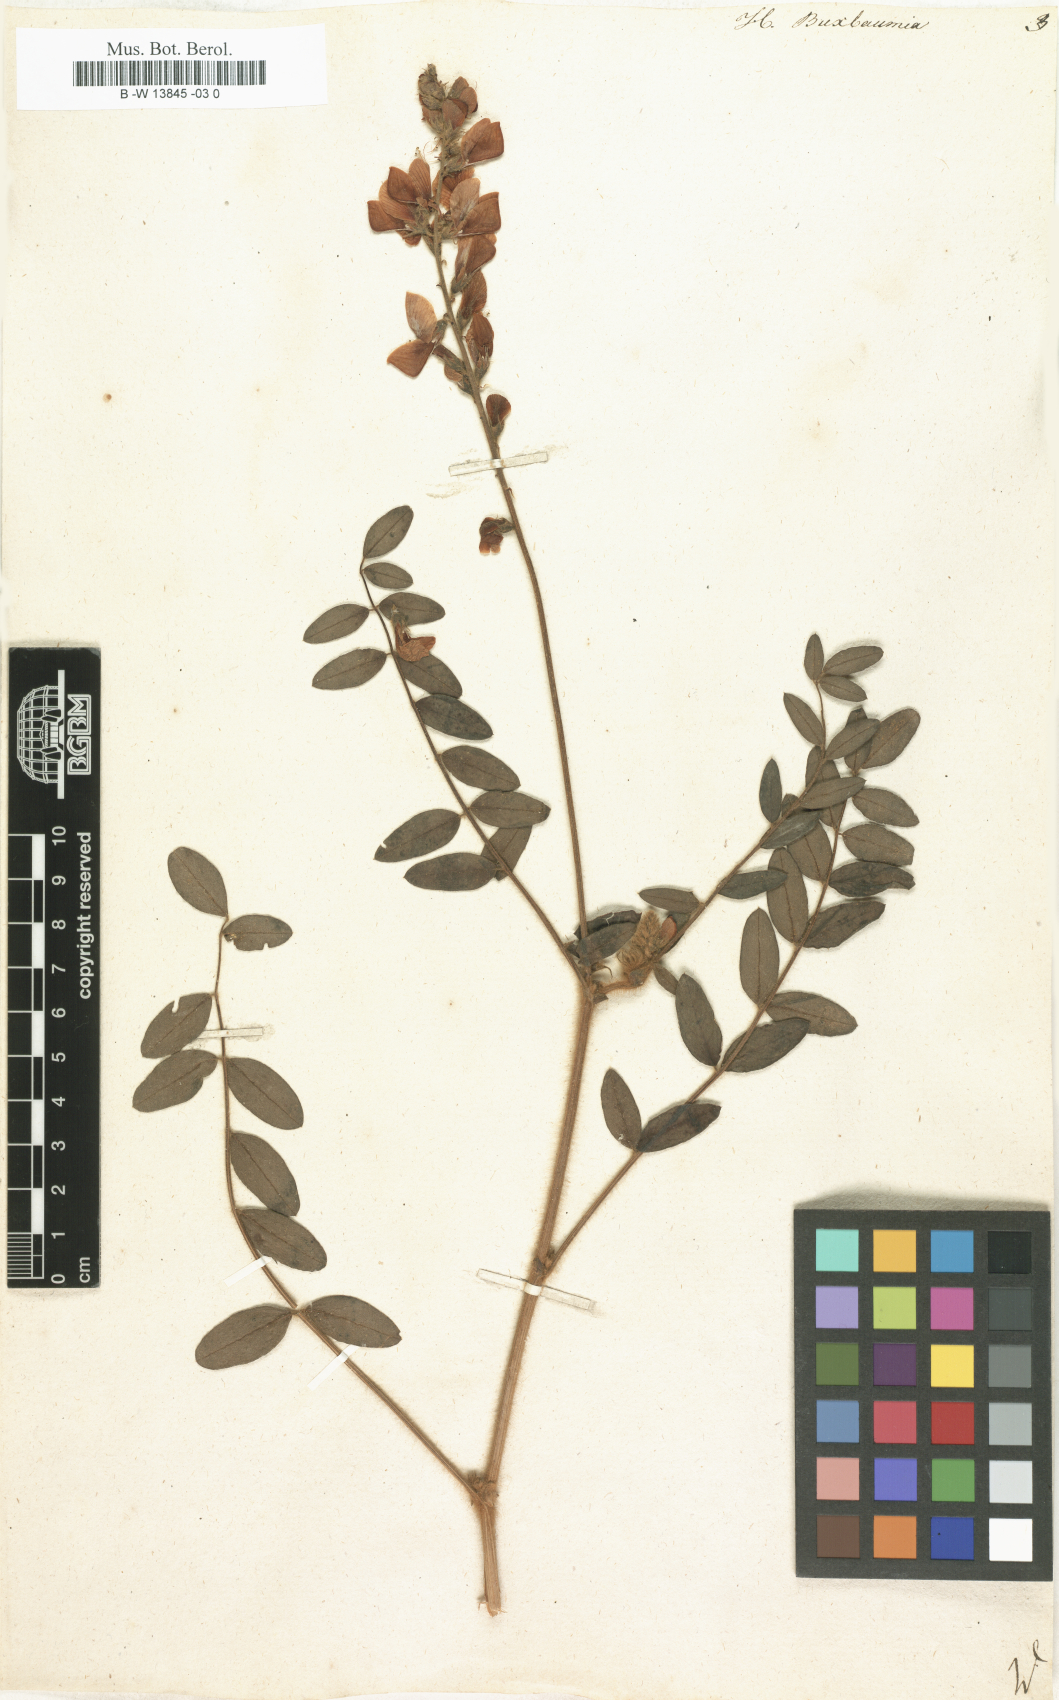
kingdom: Plantae
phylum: Tracheophyta
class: Magnoliopsida
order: Fabales
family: Fabaceae
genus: Onobrychis
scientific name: Onobrychis radiata
